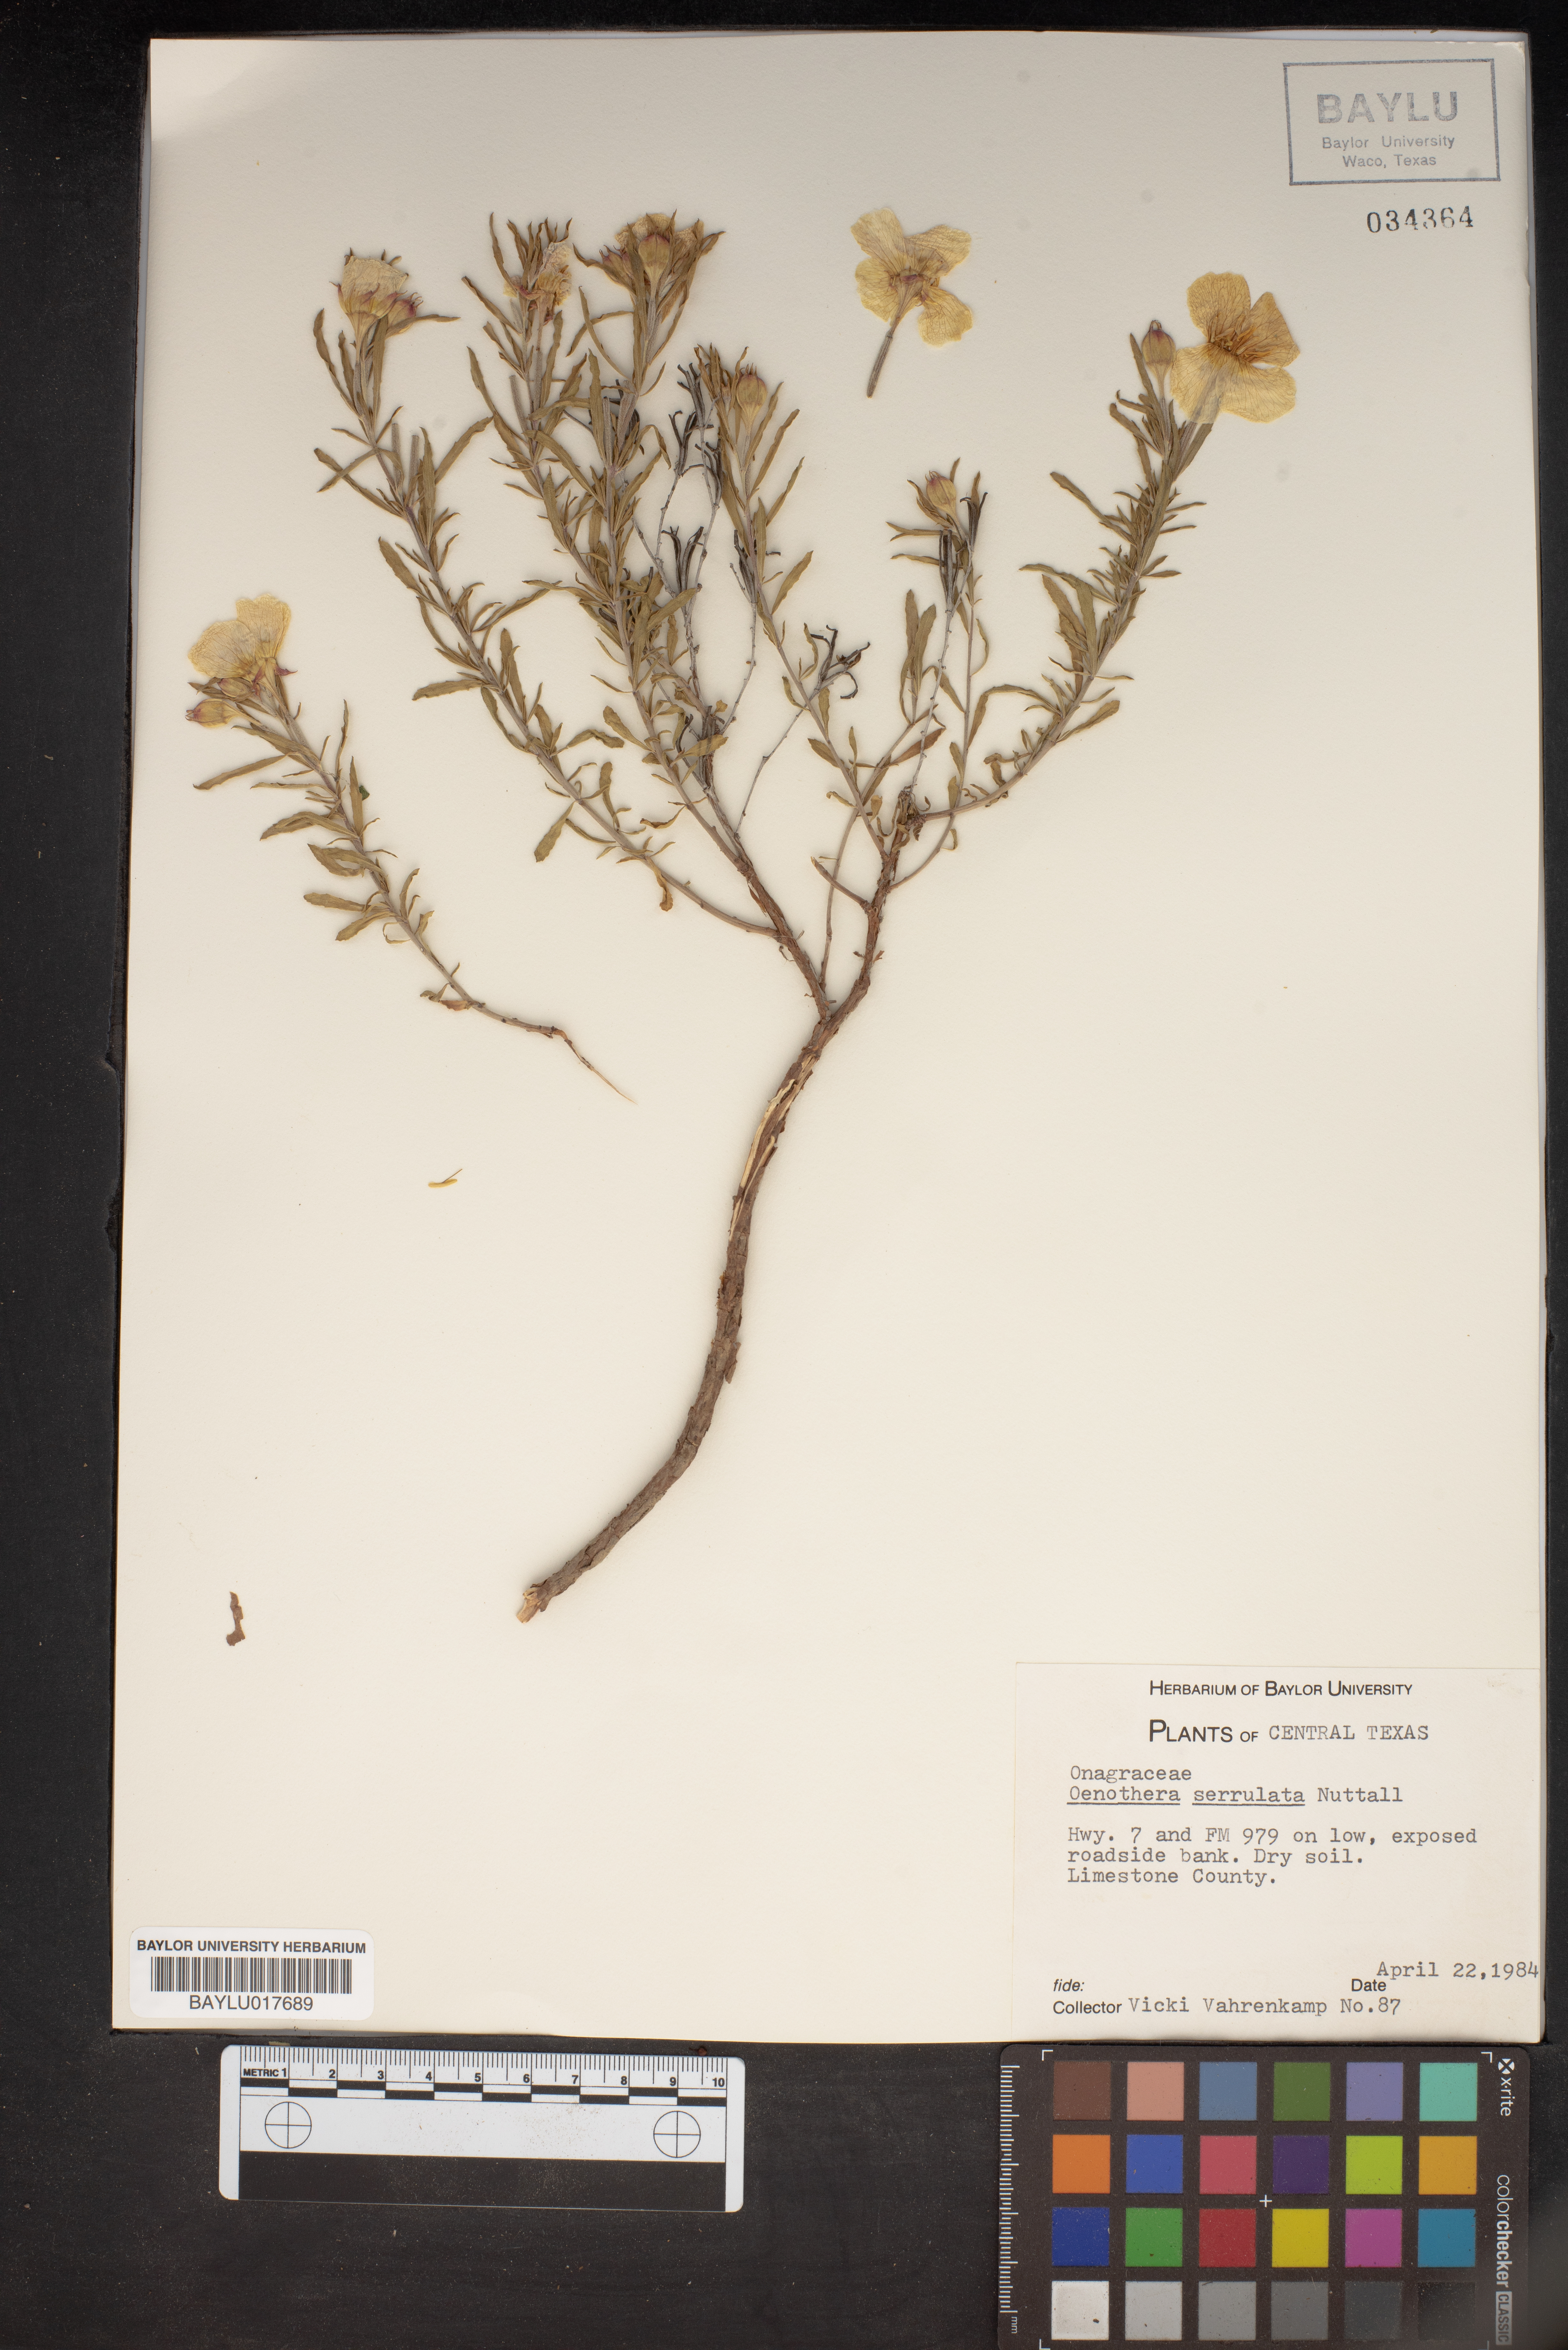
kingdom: Plantae
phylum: Tracheophyta
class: Magnoliopsida
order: Myrtales
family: Onagraceae
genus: Oenothera
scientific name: Oenothera serrulata
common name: Half-shrub calylophus
